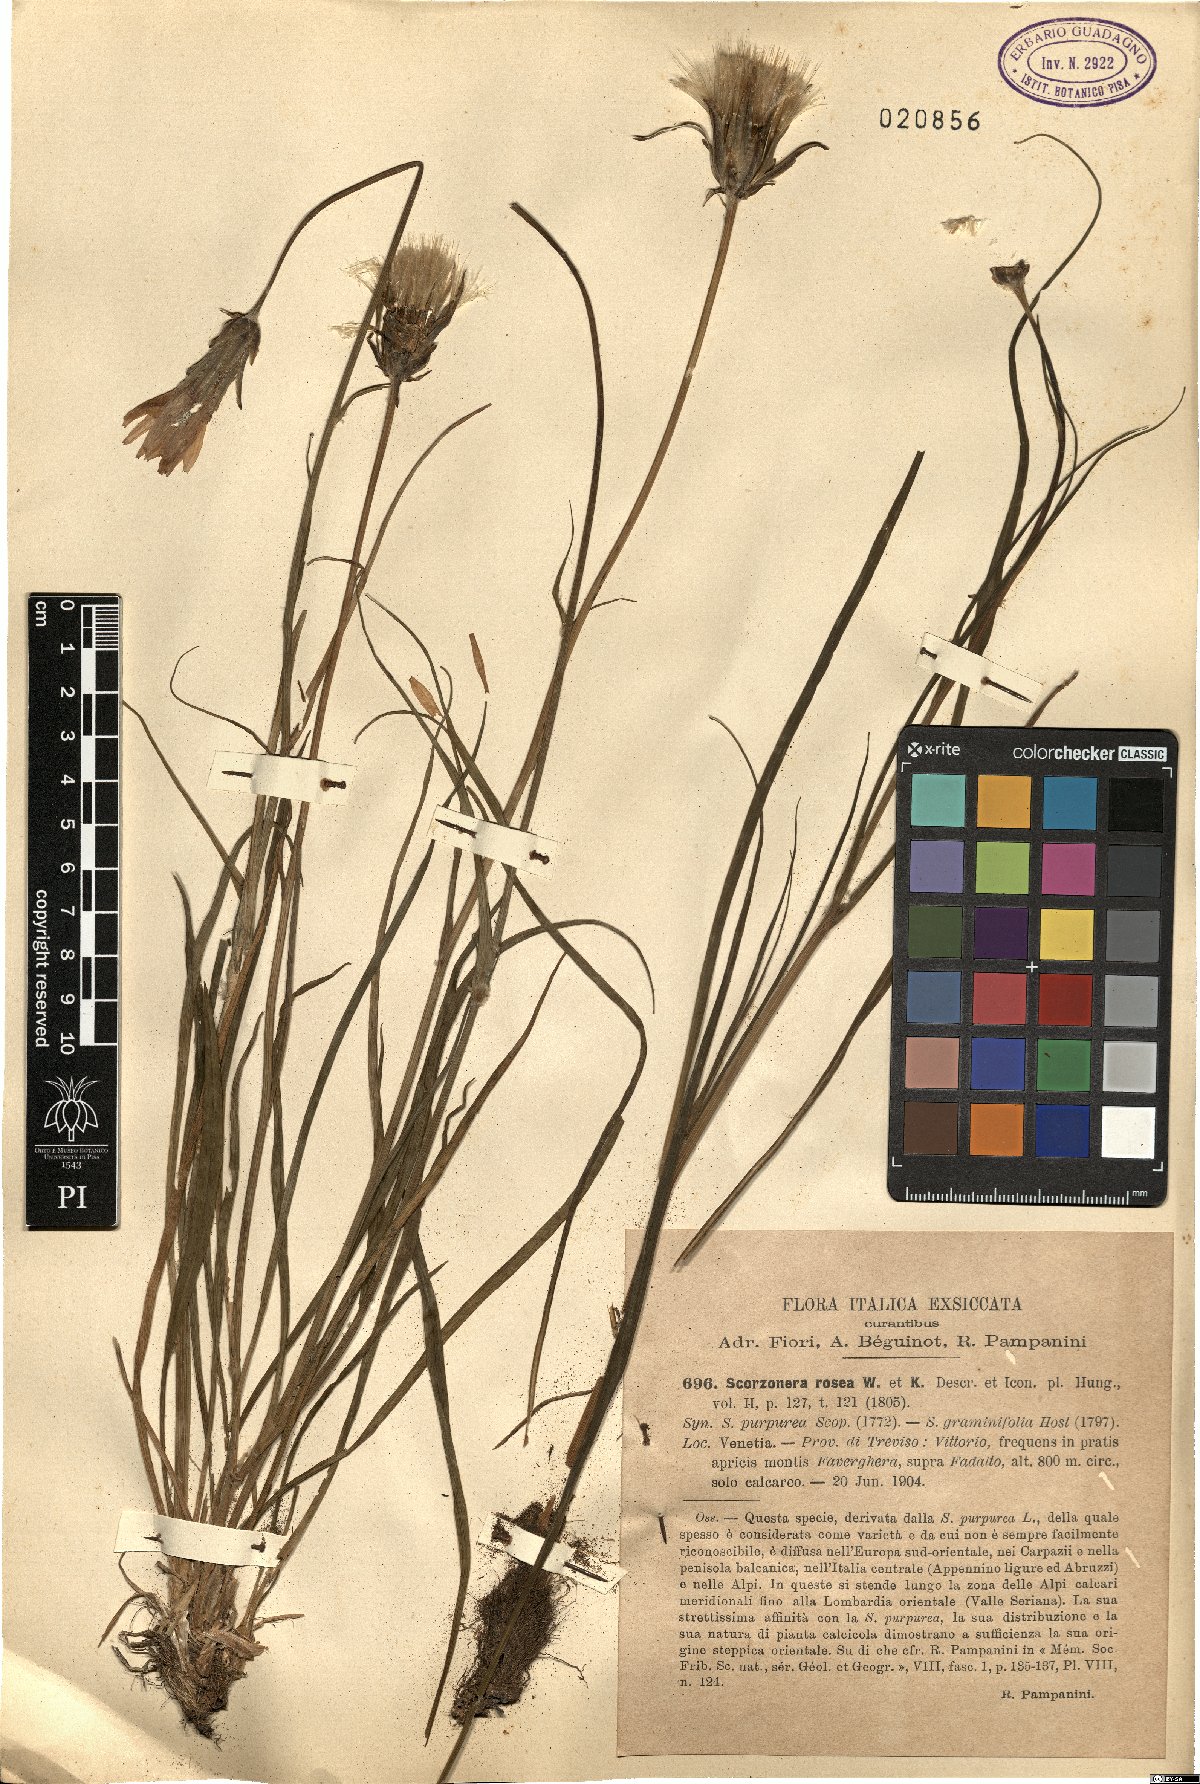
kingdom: Plantae
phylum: Tracheophyta
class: Magnoliopsida
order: Asterales
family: Asteraceae
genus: Scorzonera
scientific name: Scorzonera rosea
